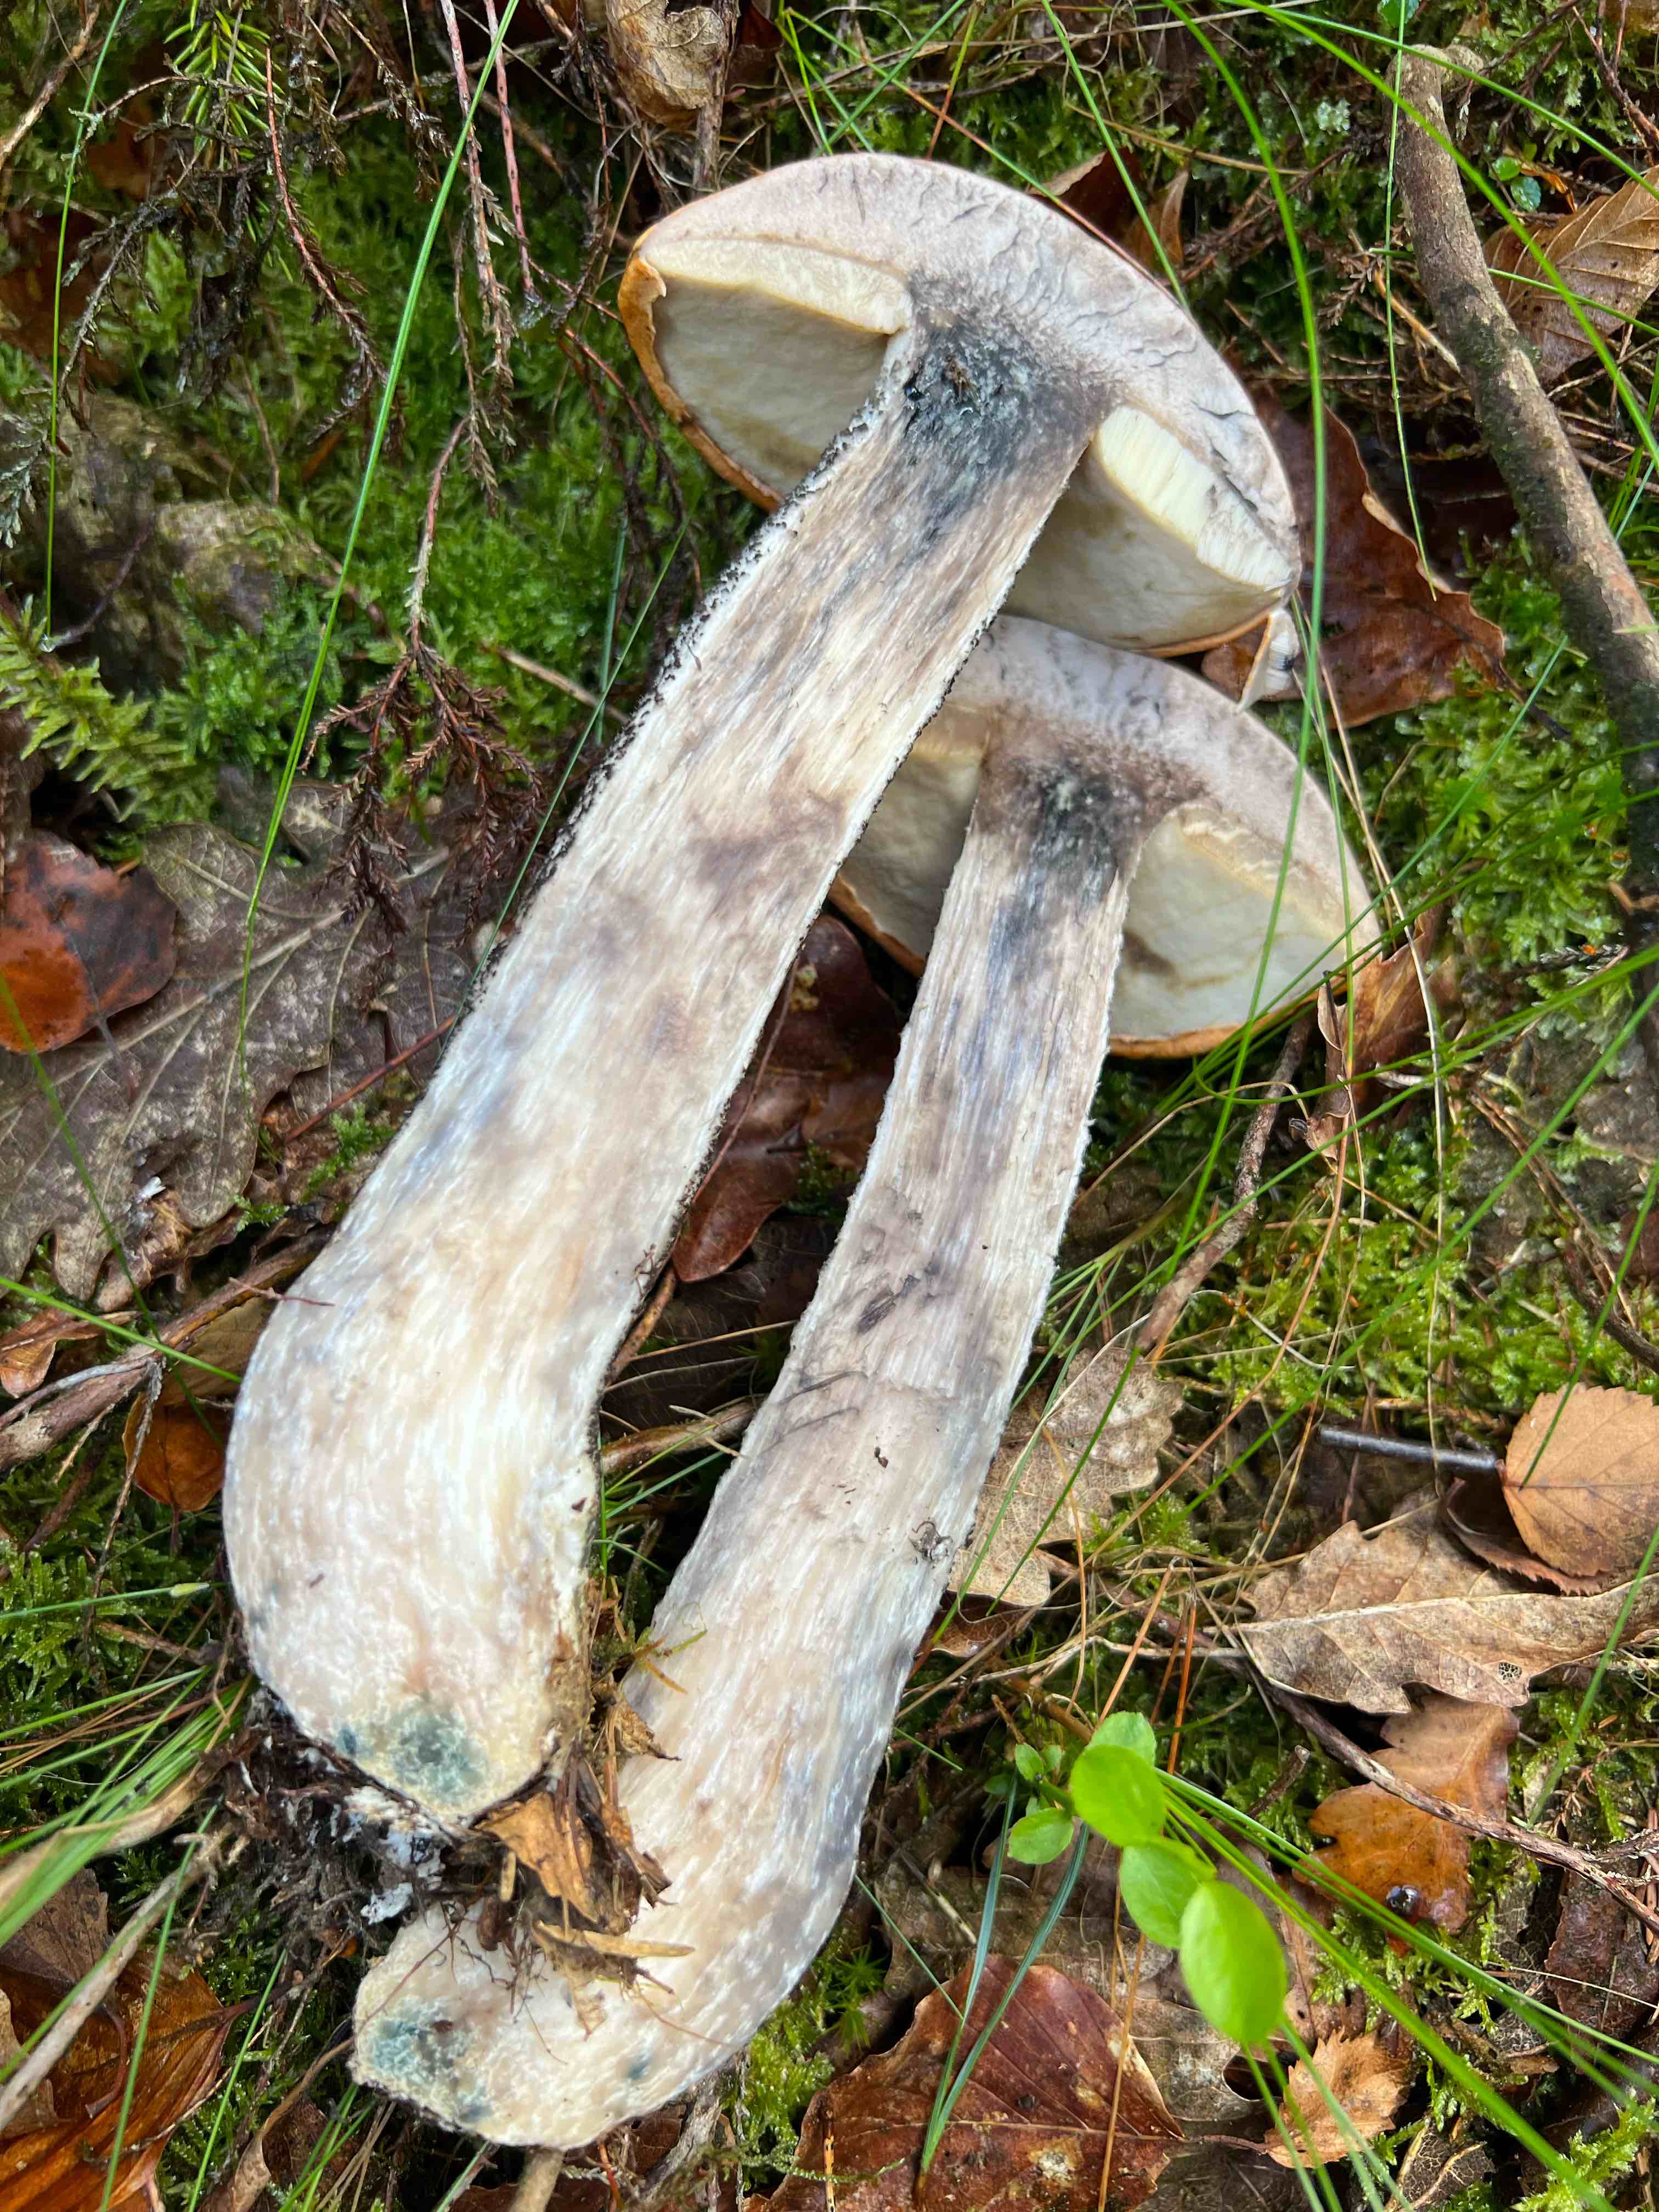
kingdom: Fungi
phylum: Basidiomycota
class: Agaricomycetes
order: Boletales
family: Boletaceae
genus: Leccinum
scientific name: Leccinum versipelle
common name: orange skælrørhat
